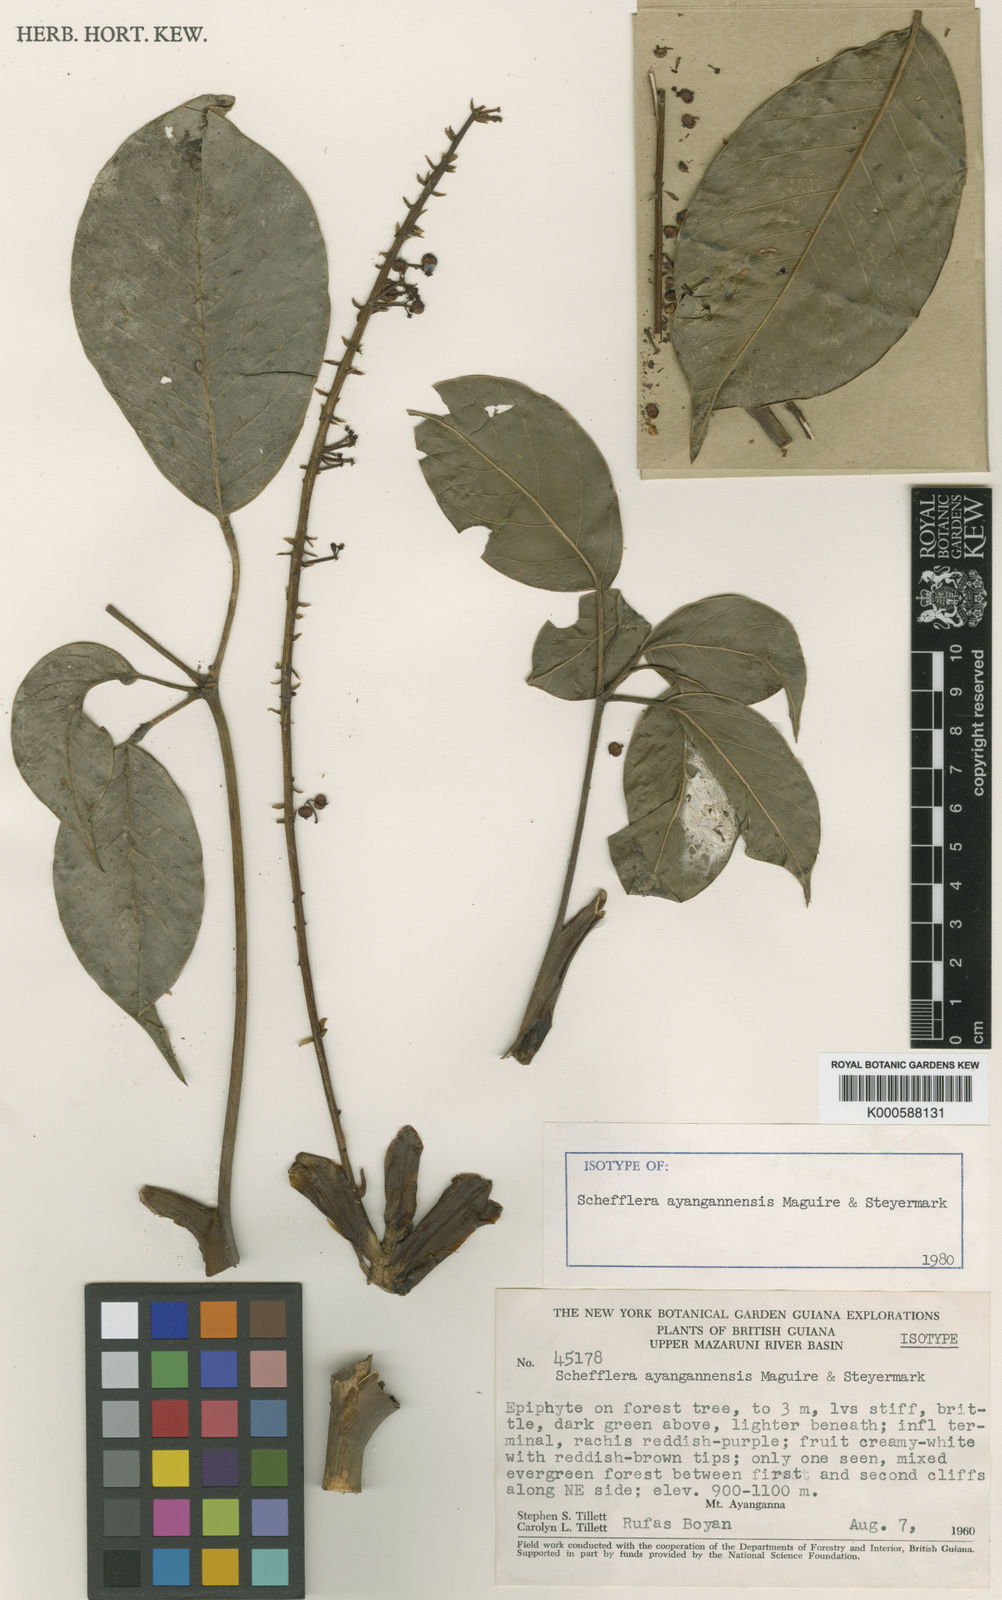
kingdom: Plantae
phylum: Tracheophyta
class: Magnoliopsida
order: Apiales
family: Araliaceae
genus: Sciodaphyllum
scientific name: Sciodaphyllum ayangannense
